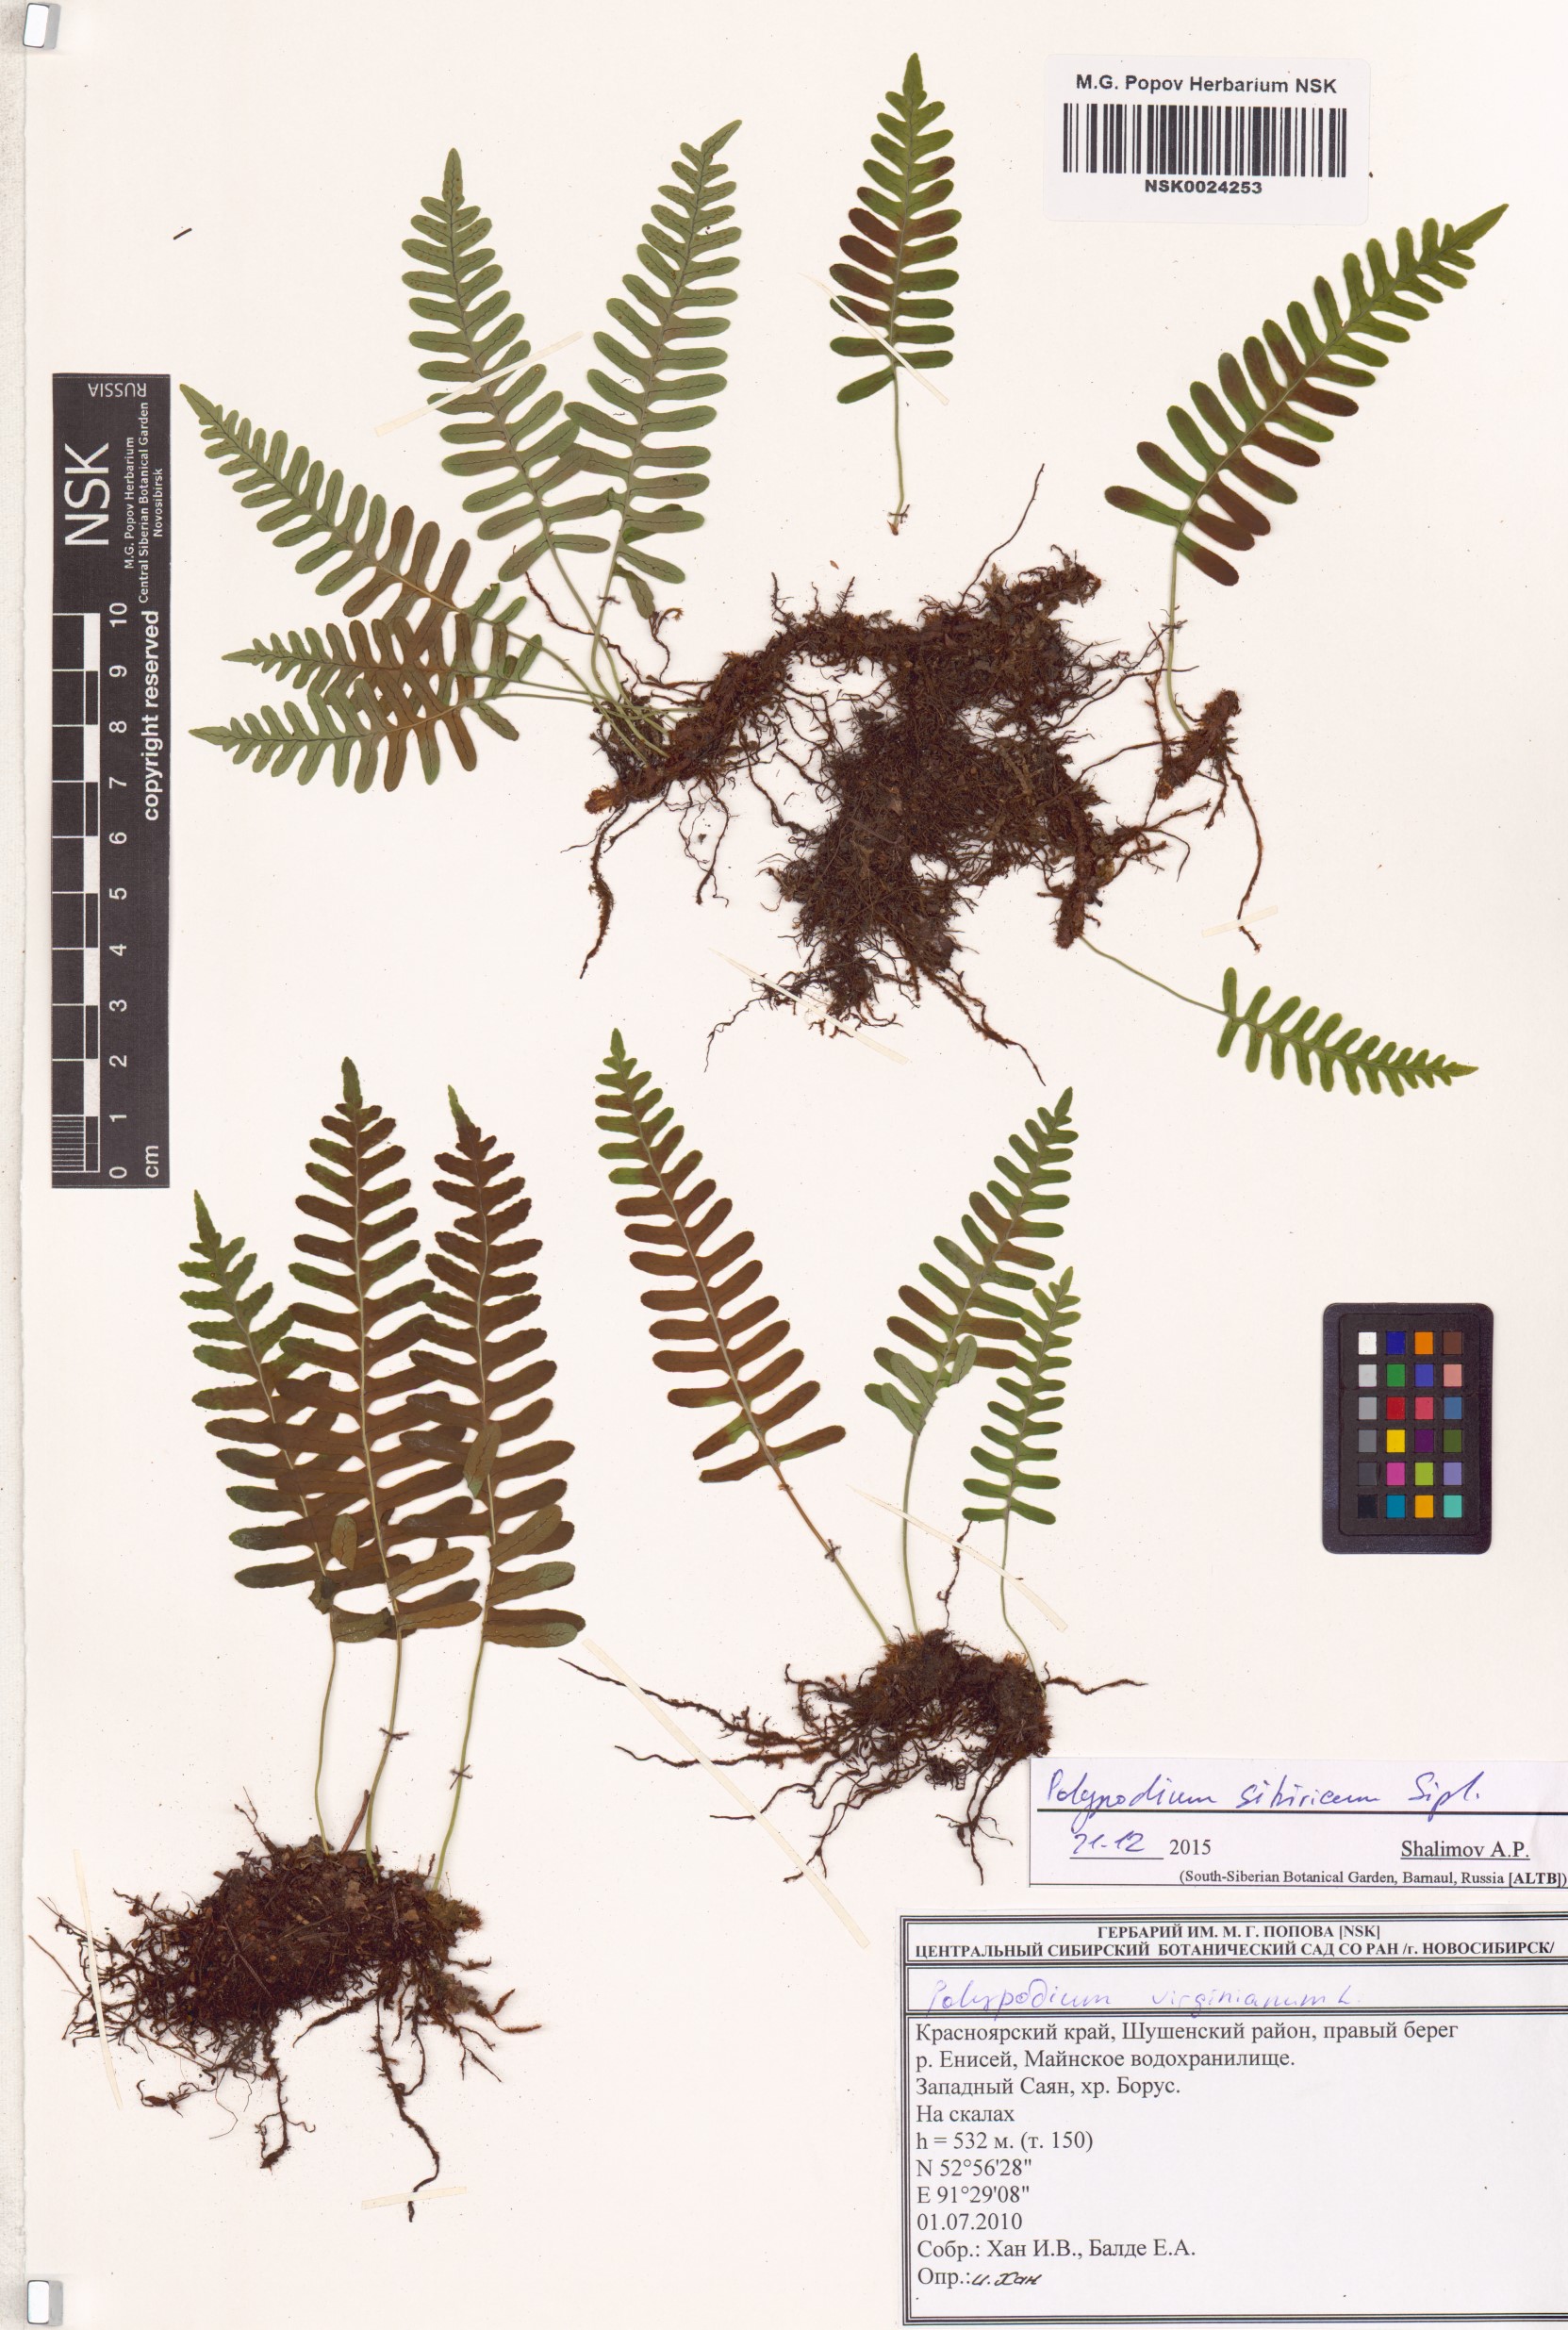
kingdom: Plantae
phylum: Tracheophyta
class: Polypodiopsida
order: Polypodiales
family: Polypodiaceae
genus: Polypodium
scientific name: Polypodium sibiricum
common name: Siberian polypody
